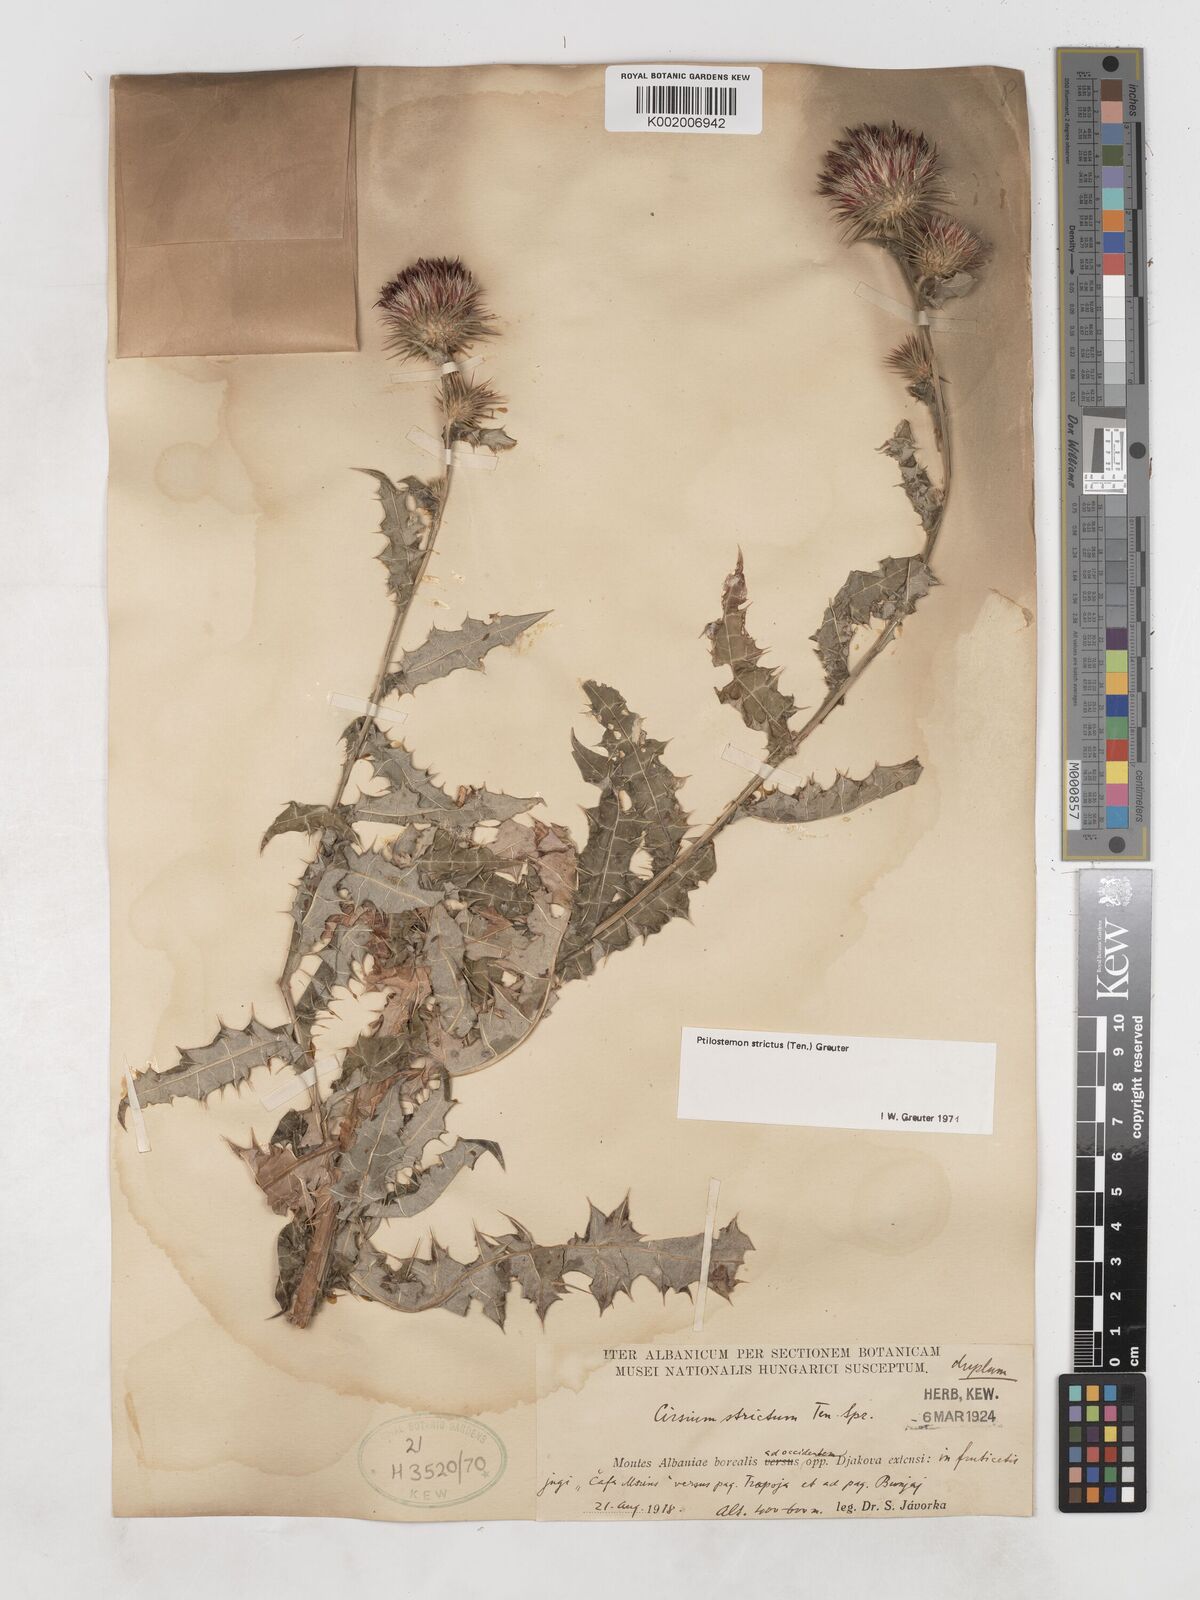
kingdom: Plantae
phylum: Tracheophyta
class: Magnoliopsida
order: Asterales
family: Asteraceae
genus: Ptilostemon
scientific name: Ptilostemon strictus
